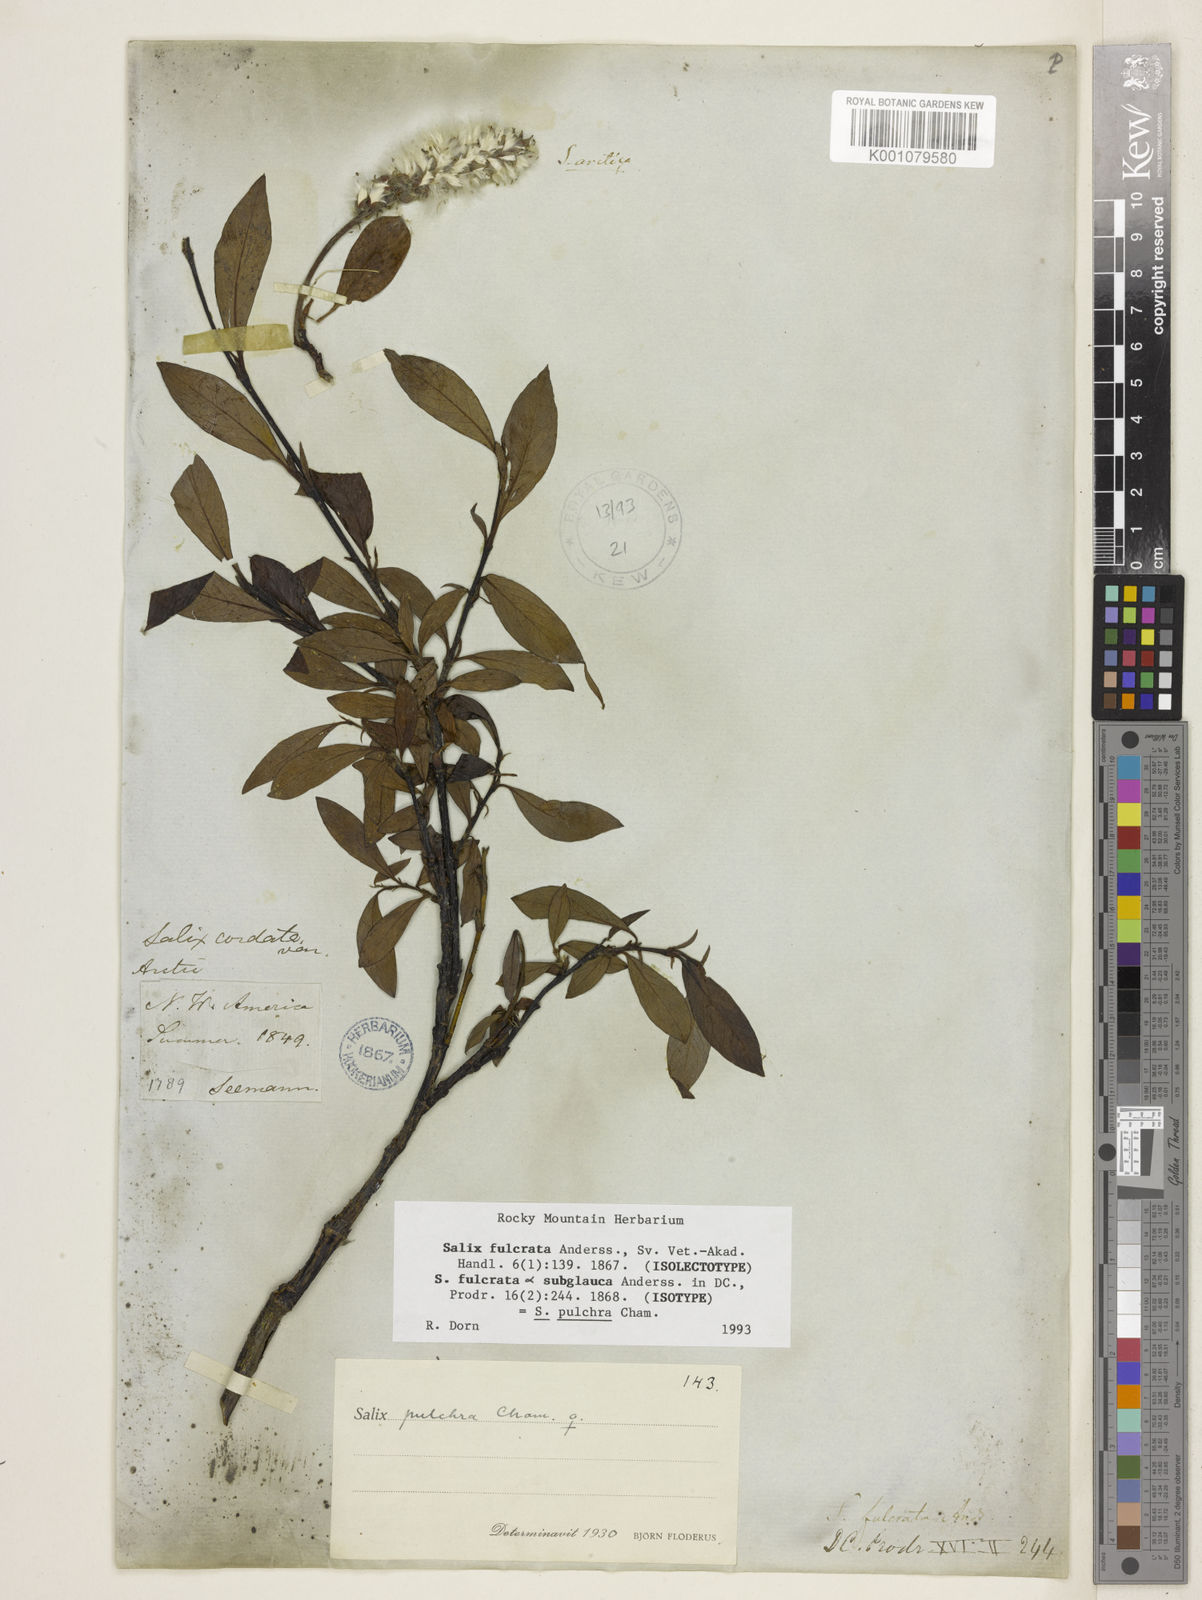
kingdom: Plantae
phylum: Tracheophyta
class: Magnoliopsida
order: Malpighiales
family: Salicaceae
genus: Salix
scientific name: Salix pulchra
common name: Diamond-leaved willow
